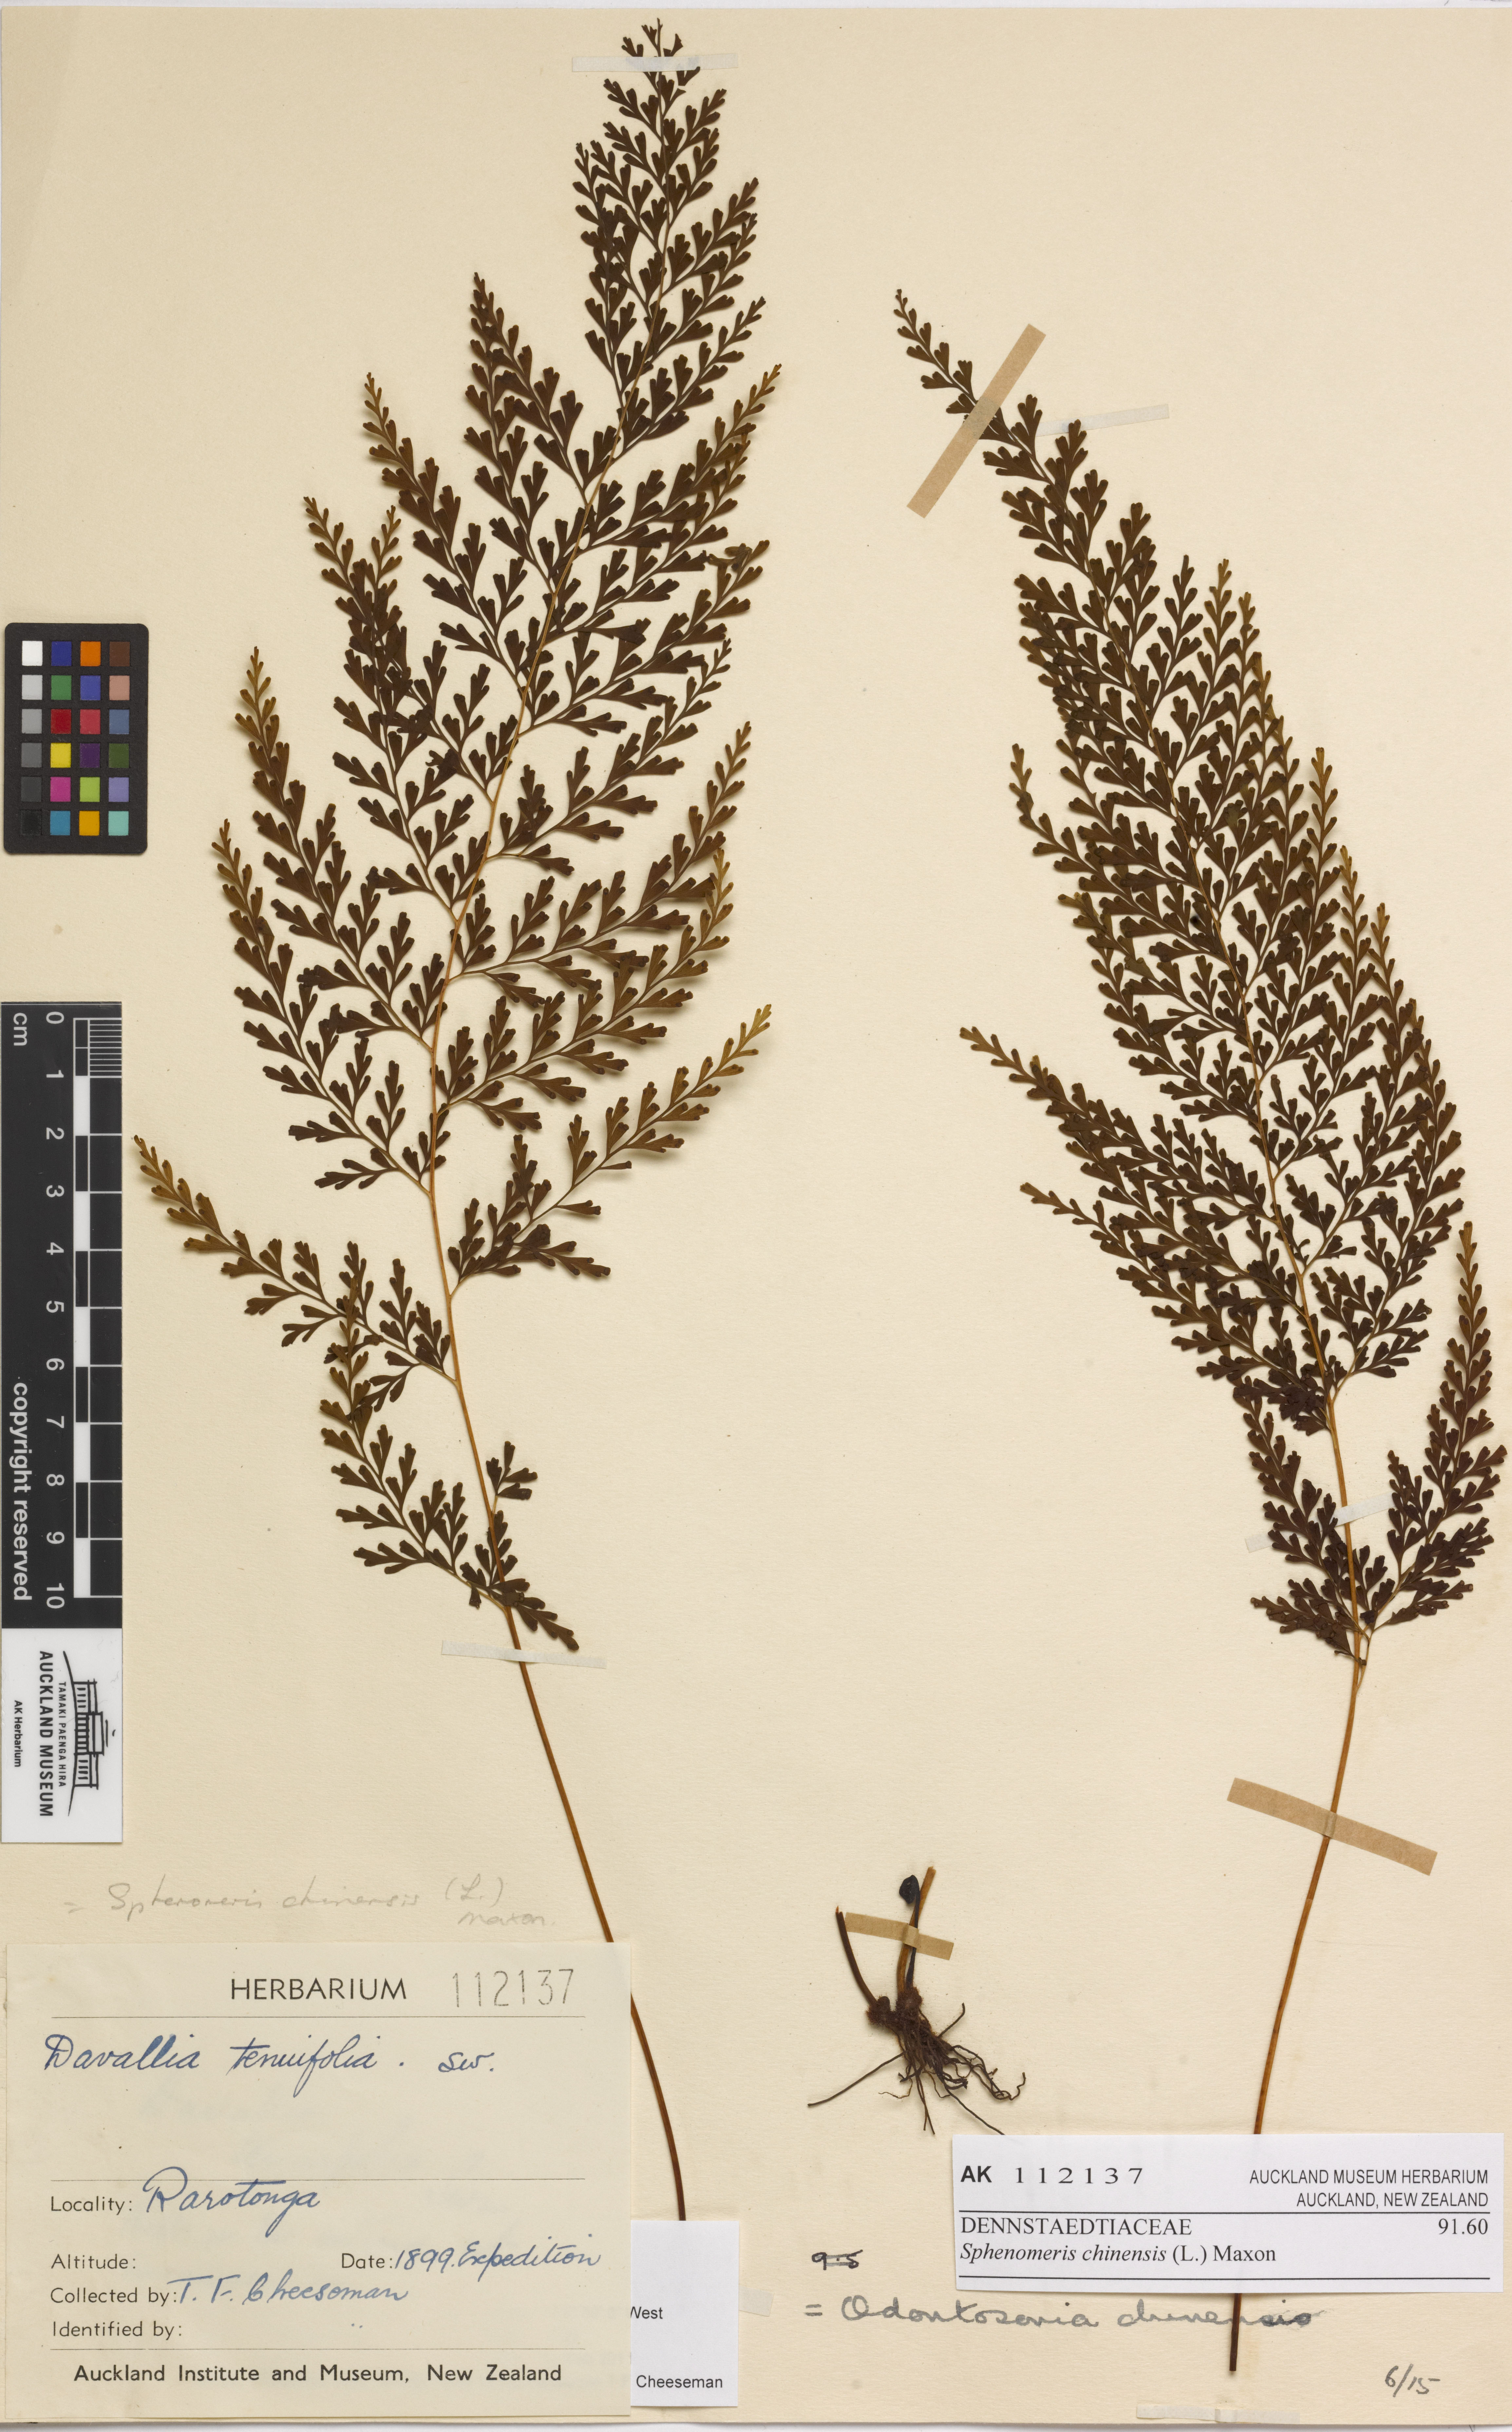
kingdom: Plantae
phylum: Tracheophyta
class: Polypodiopsida
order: Polypodiales
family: Lindsaeaceae
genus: Odontosoria
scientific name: Odontosoria chinensis
